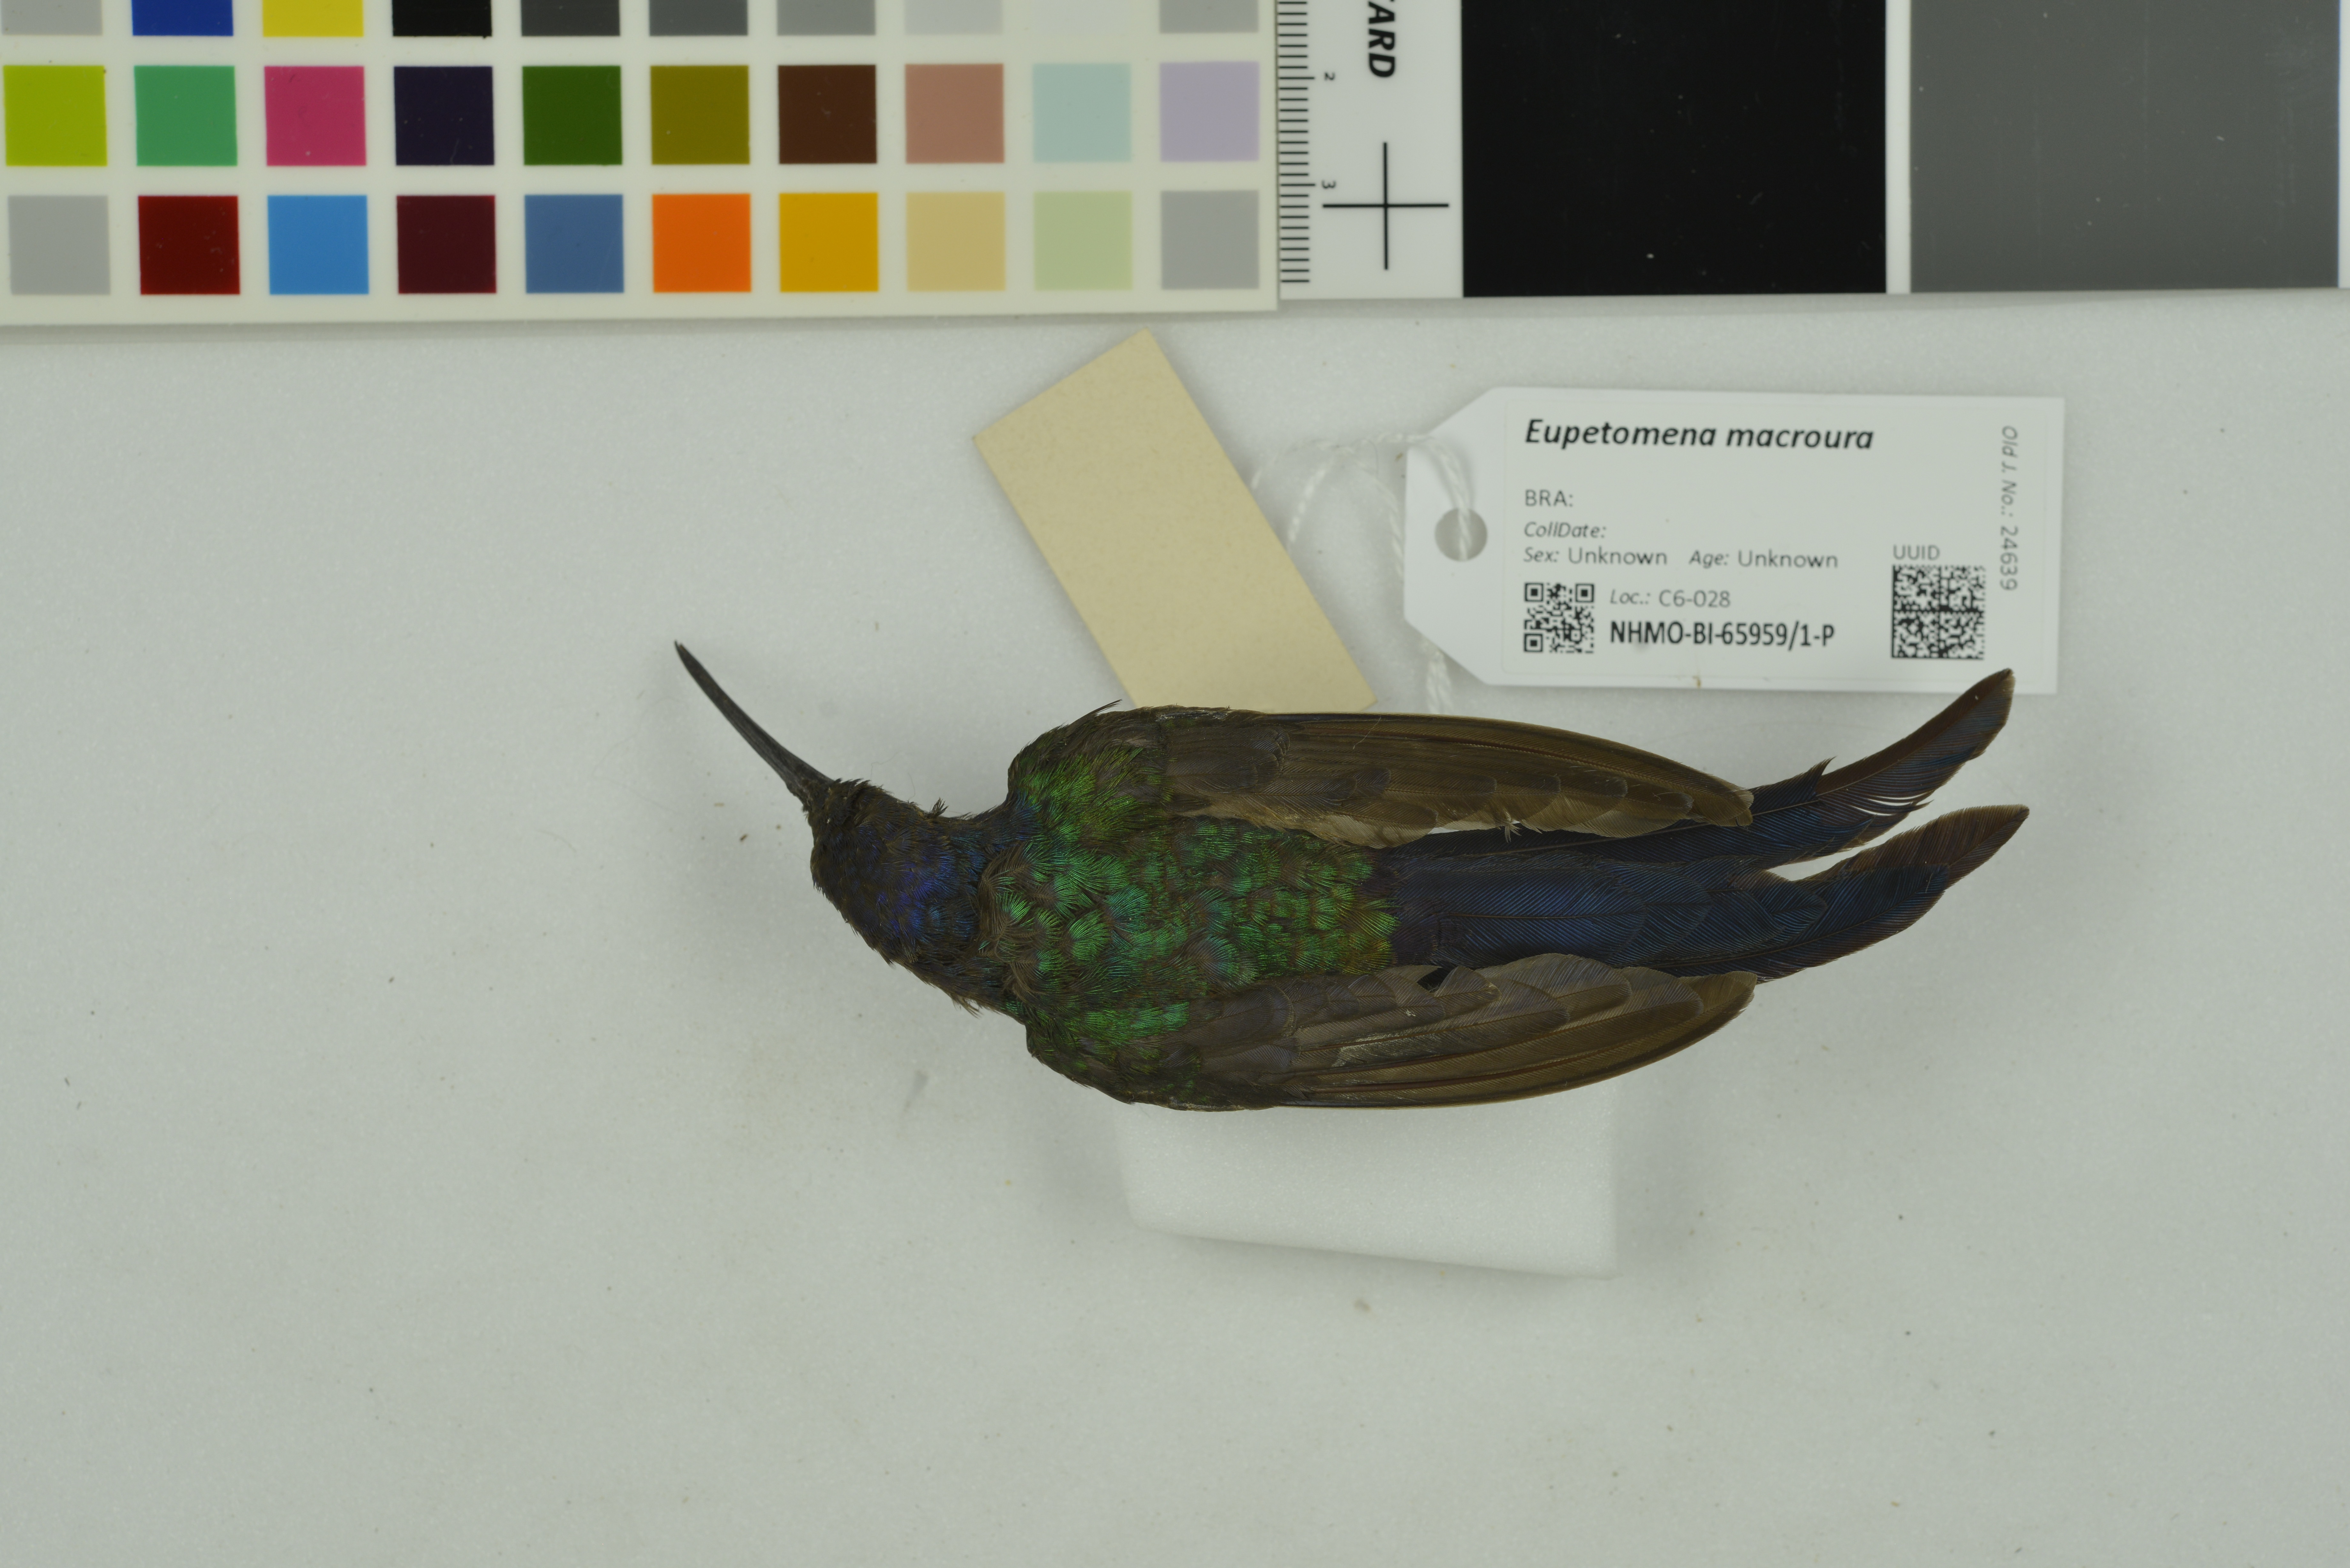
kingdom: Animalia
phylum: Chordata
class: Aves
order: Apodiformes
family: Trochilidae
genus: Eupetomena
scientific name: Eupetomena macroura
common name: Swallow-tailed hummingbird
